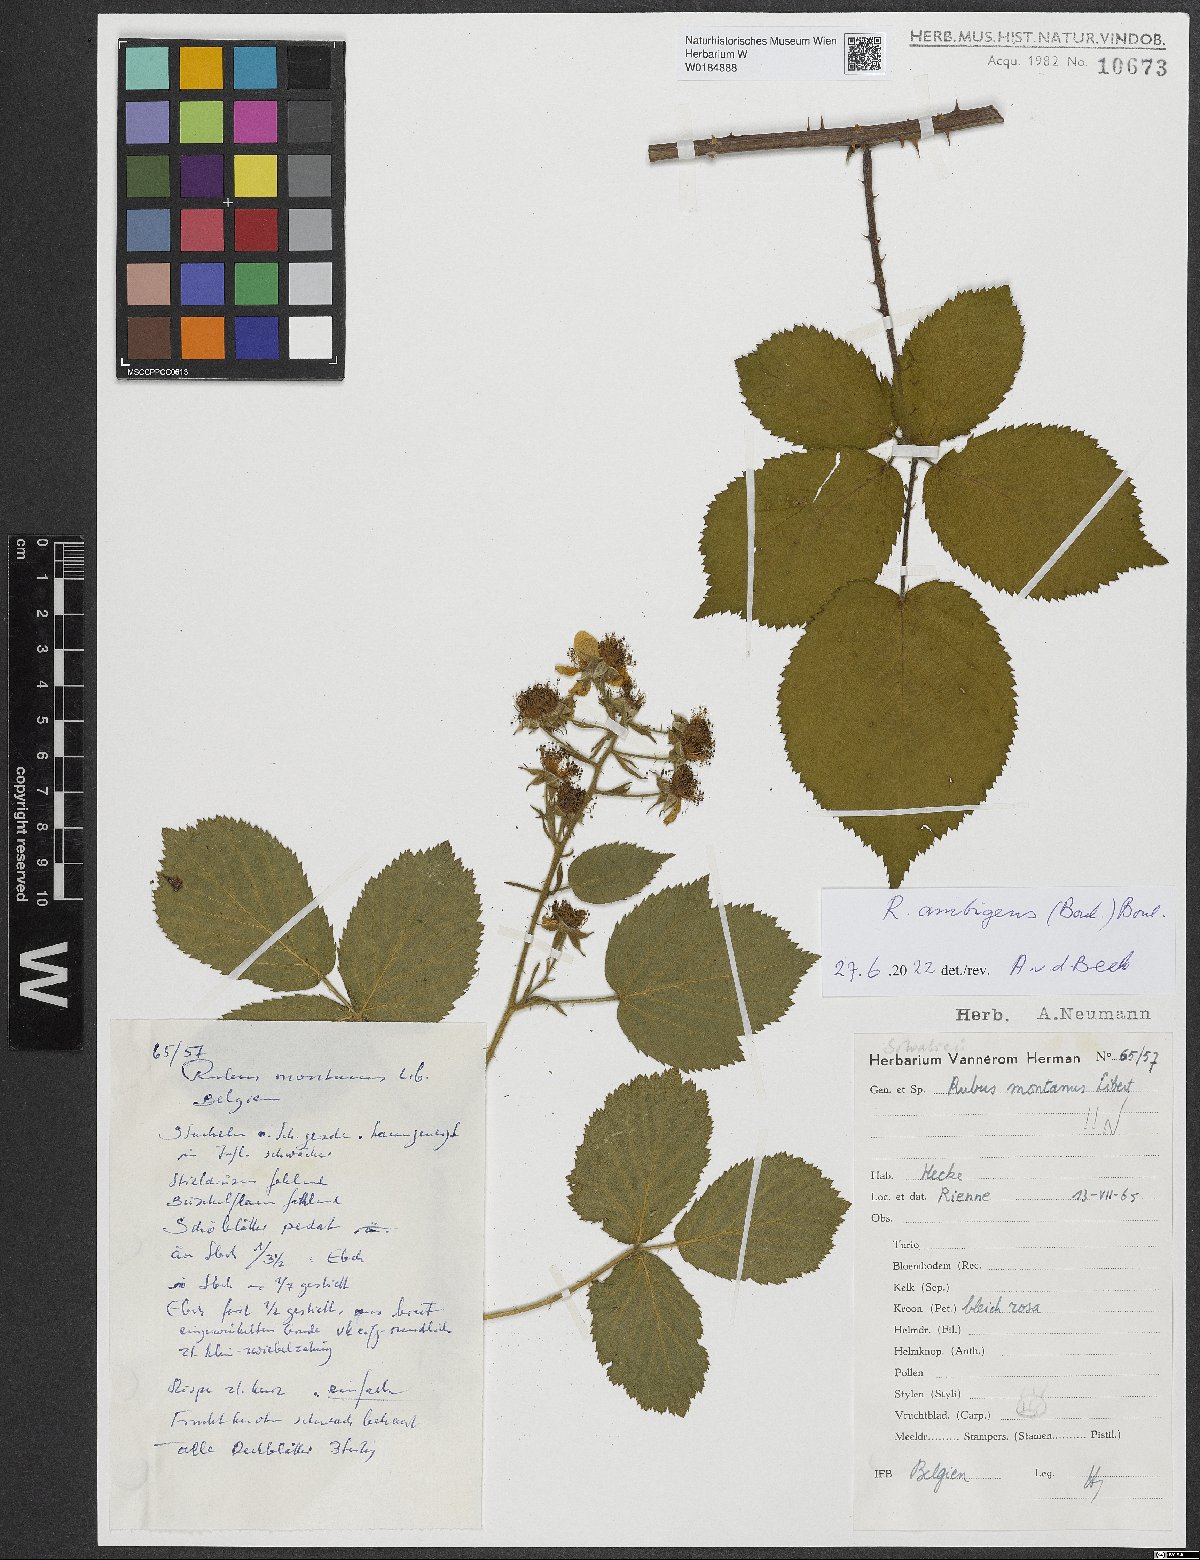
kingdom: Plantae
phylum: Tracheophyta
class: Magnoliopsida
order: Rosales
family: Rosaceae
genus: Rubus
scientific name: Rubus ambigens
